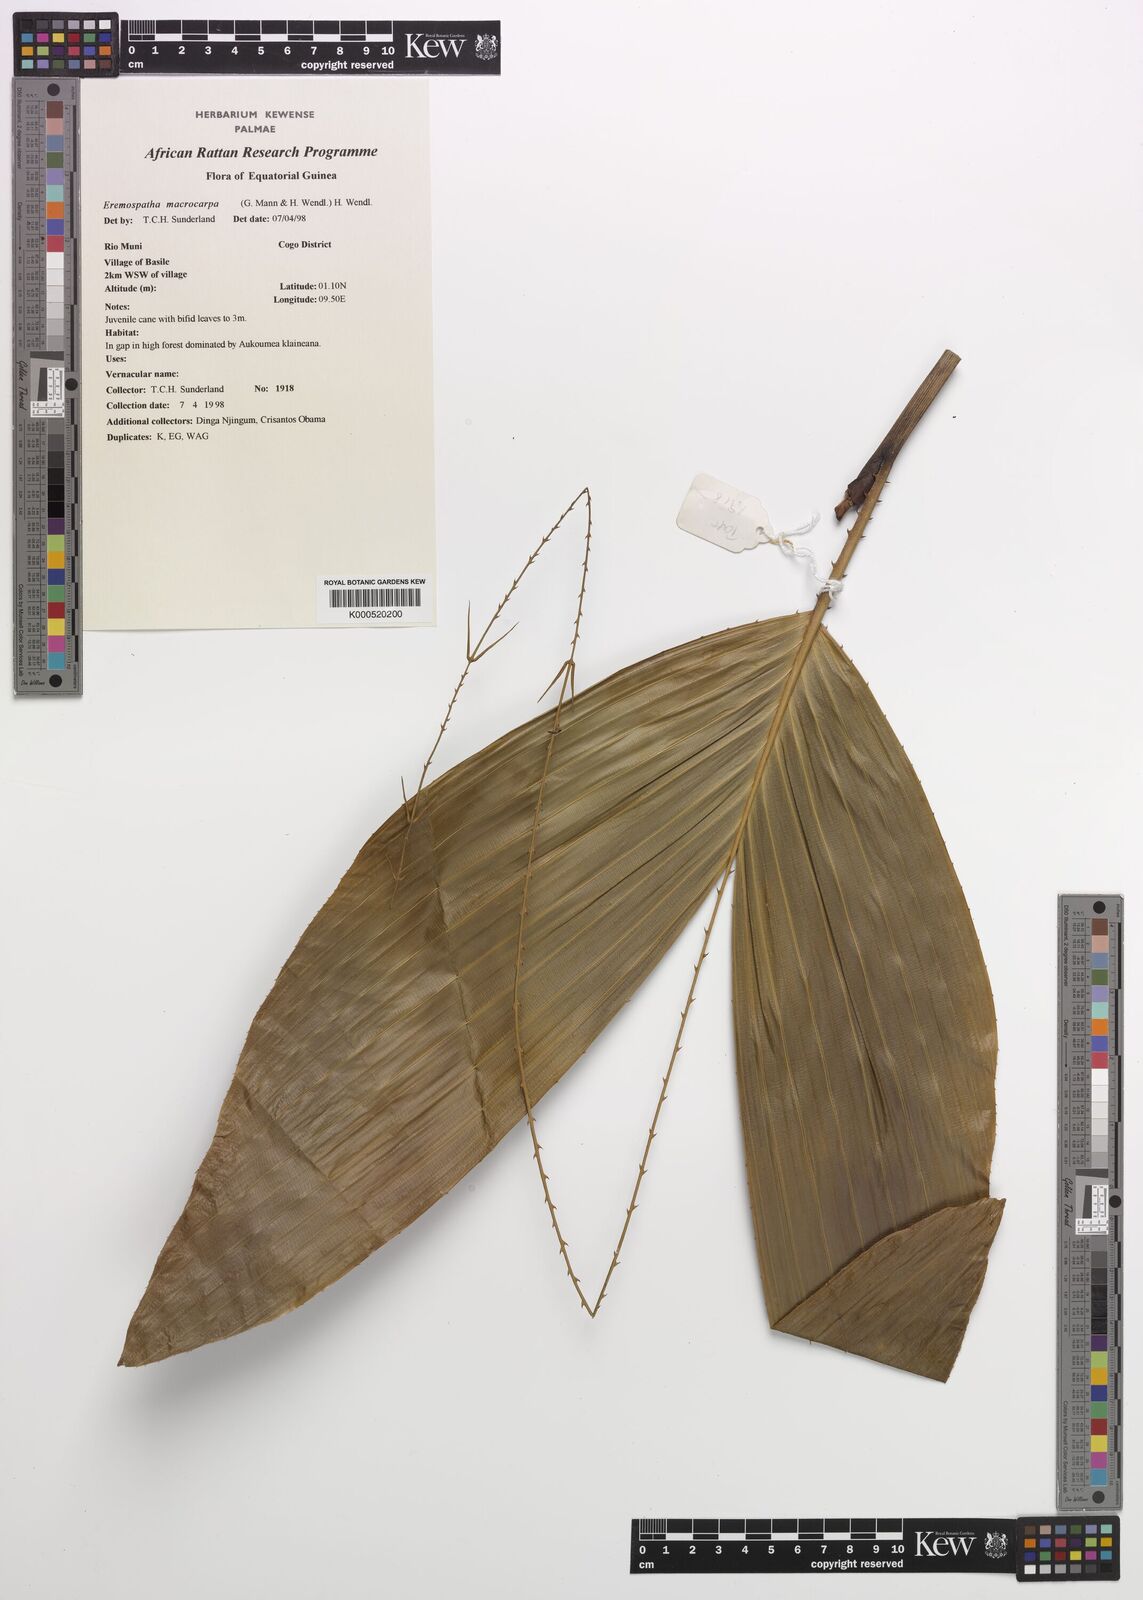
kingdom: Plantae
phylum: Tracheophyta
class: Liliopsida
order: Arecales
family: Arecaceae
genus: Eremospatha
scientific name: Eremospatha
